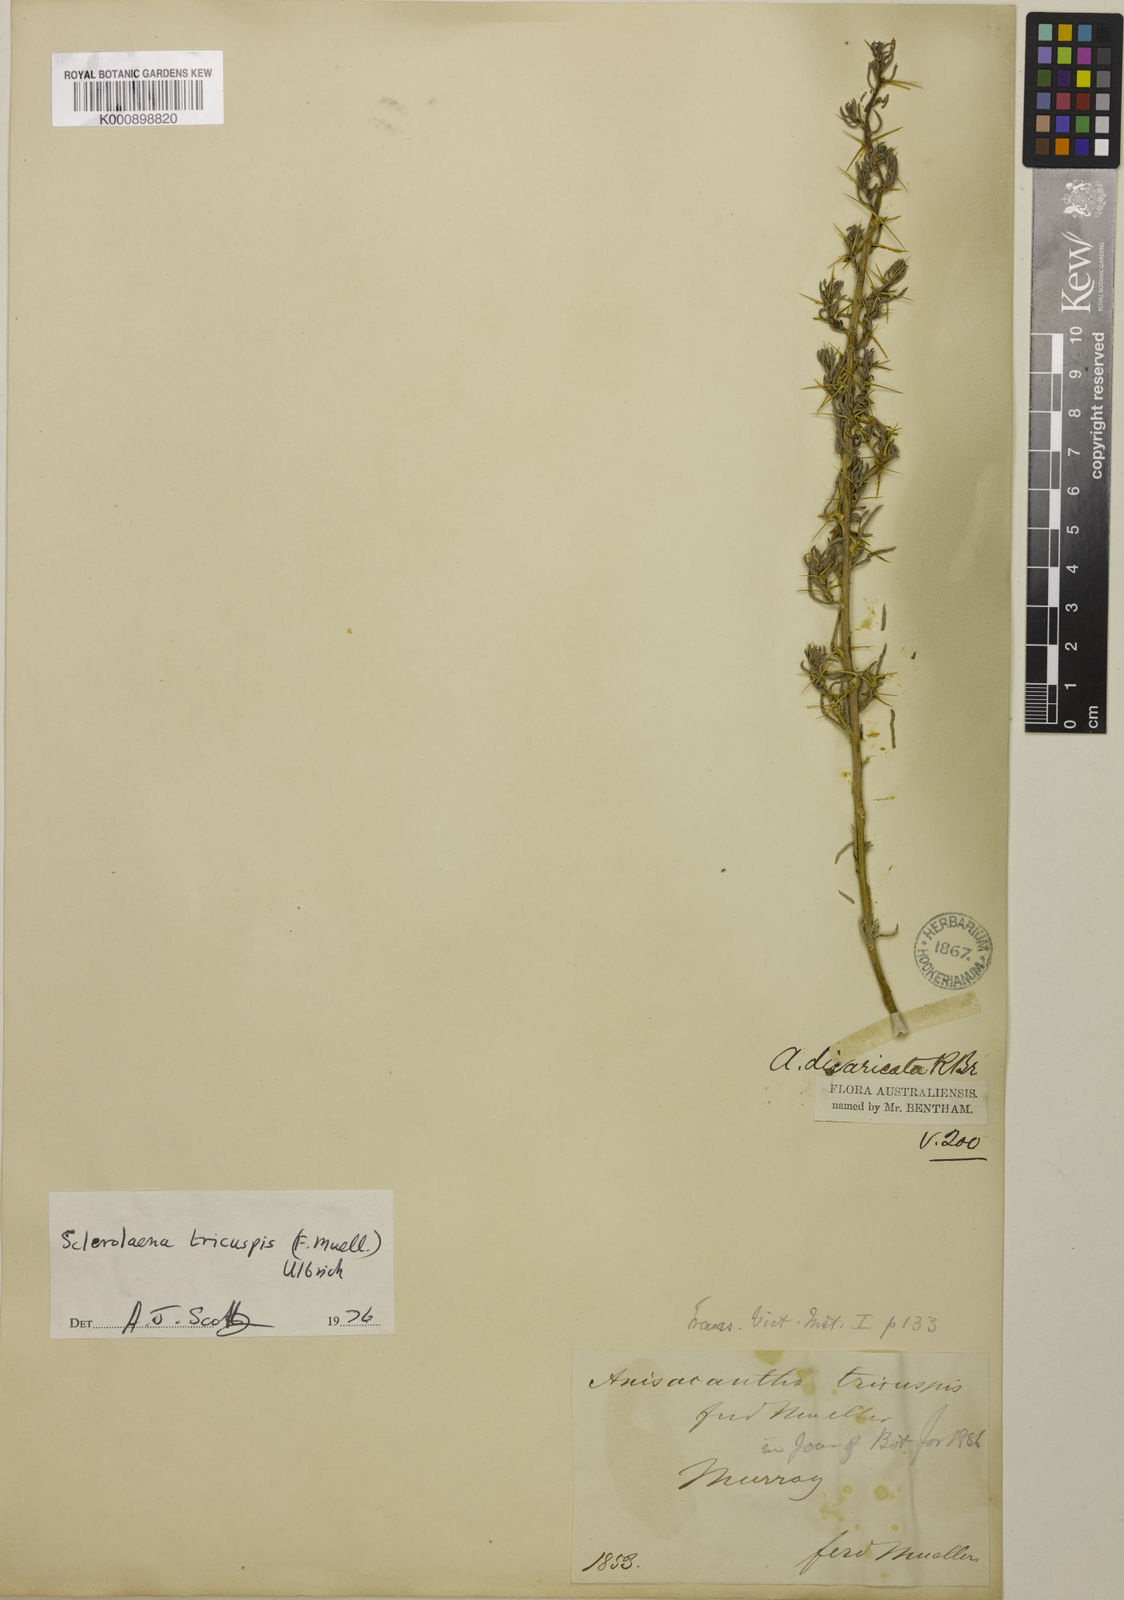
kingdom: Plantae
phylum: Tracheophyta
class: Magnoliopsida
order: Caryophyllales
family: Amaranthaceae
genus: Sclerolaena
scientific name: Sclerolaena tricuspis
